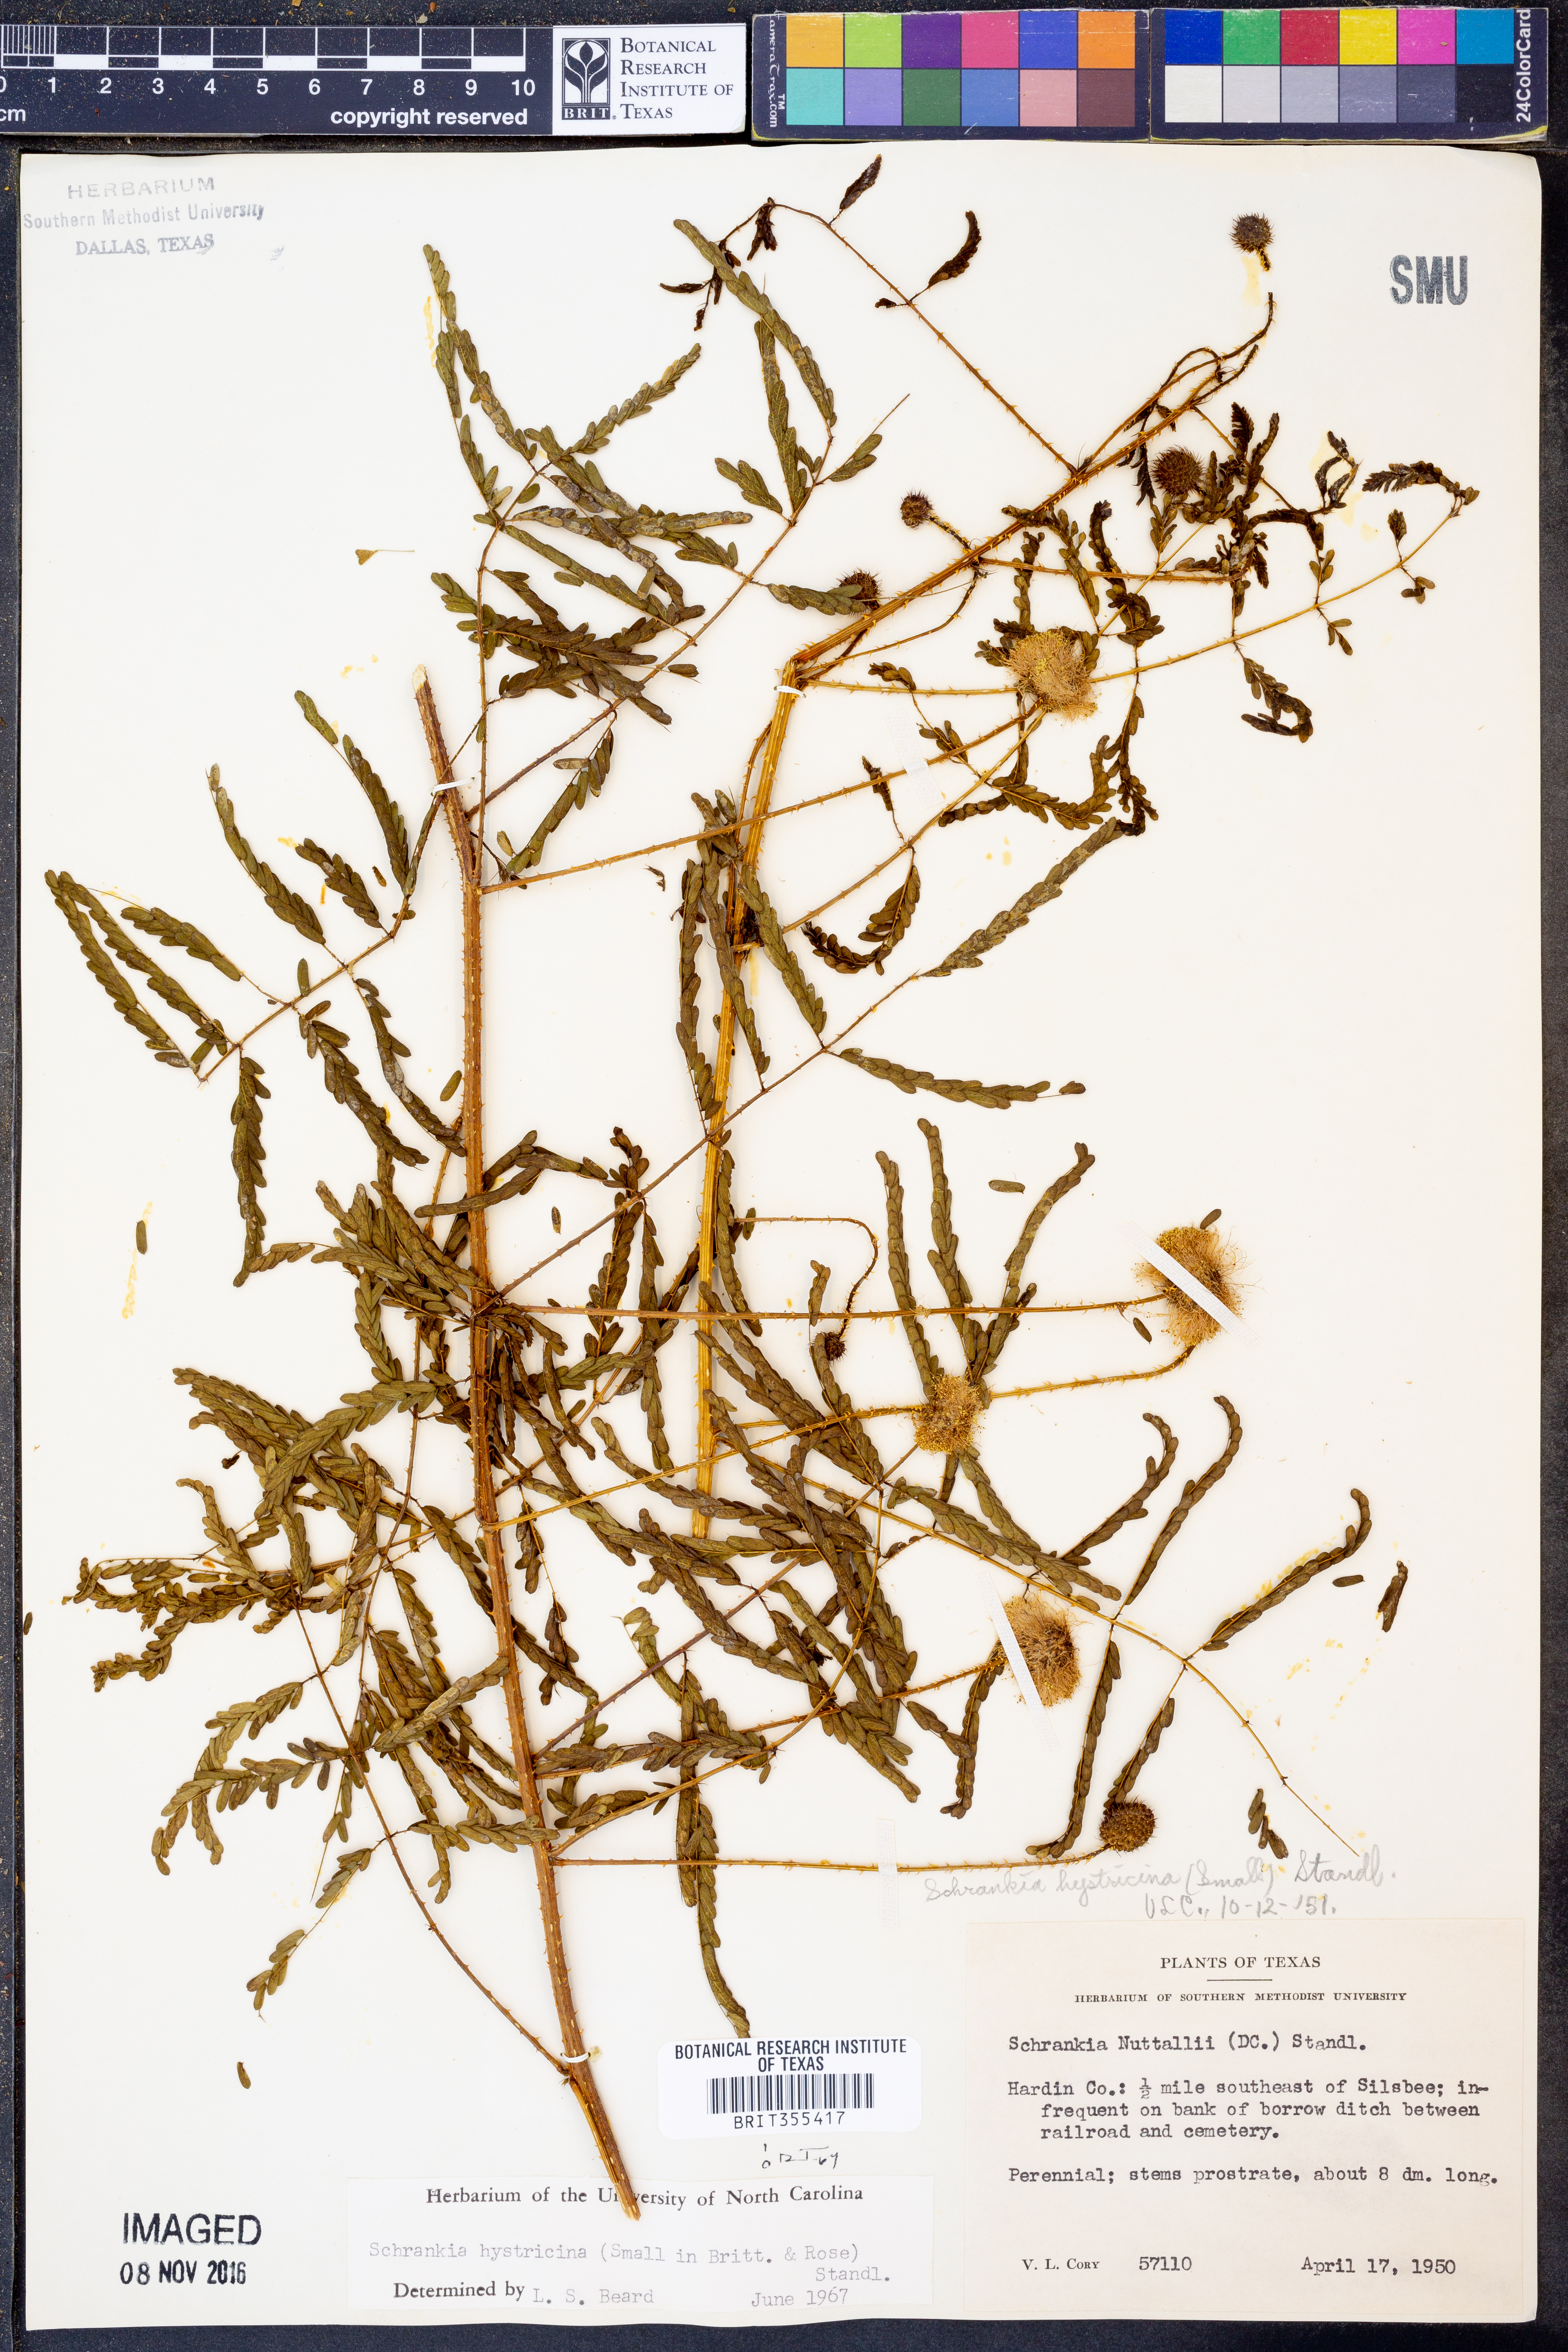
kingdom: Plantae
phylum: Tracheophyta
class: Magnoliopsida
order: Fabales
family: Fabaceae
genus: Mimosa
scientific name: Mimosa hystricina
